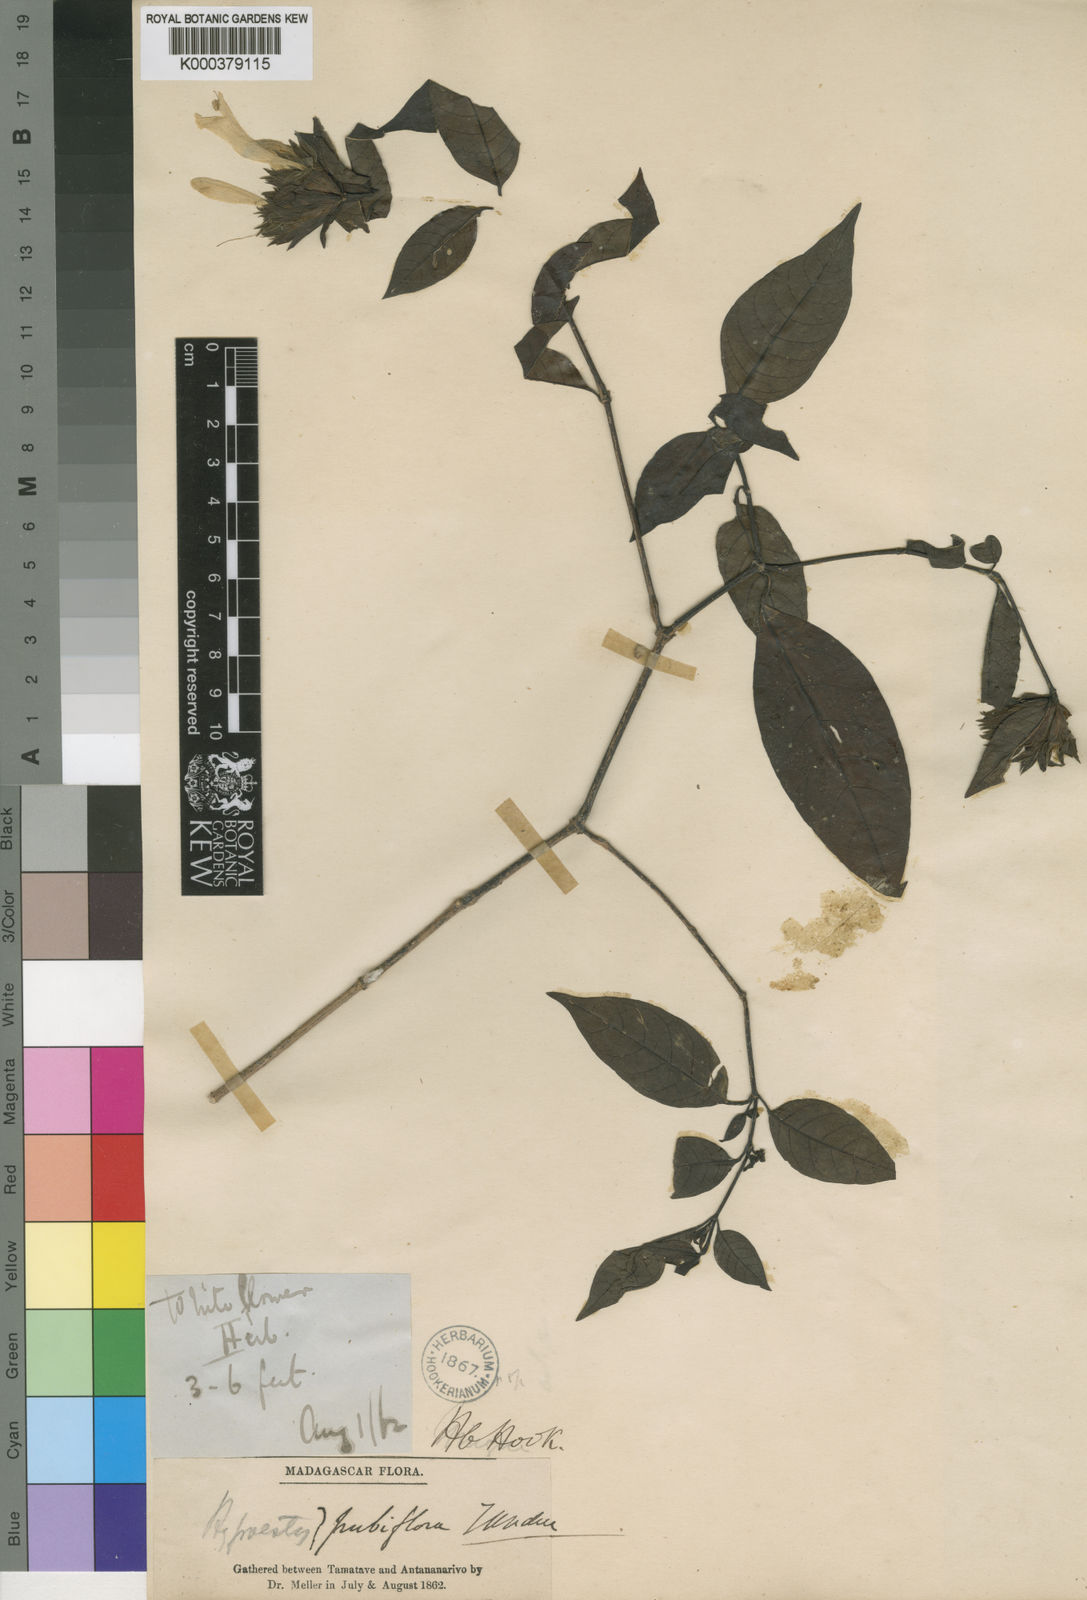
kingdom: Plantae
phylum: Tracheophyta
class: Magnoliopsida
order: Lamiales
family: Acanthaceae
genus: Hypoestes
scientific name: Hypoestes fascicularis
